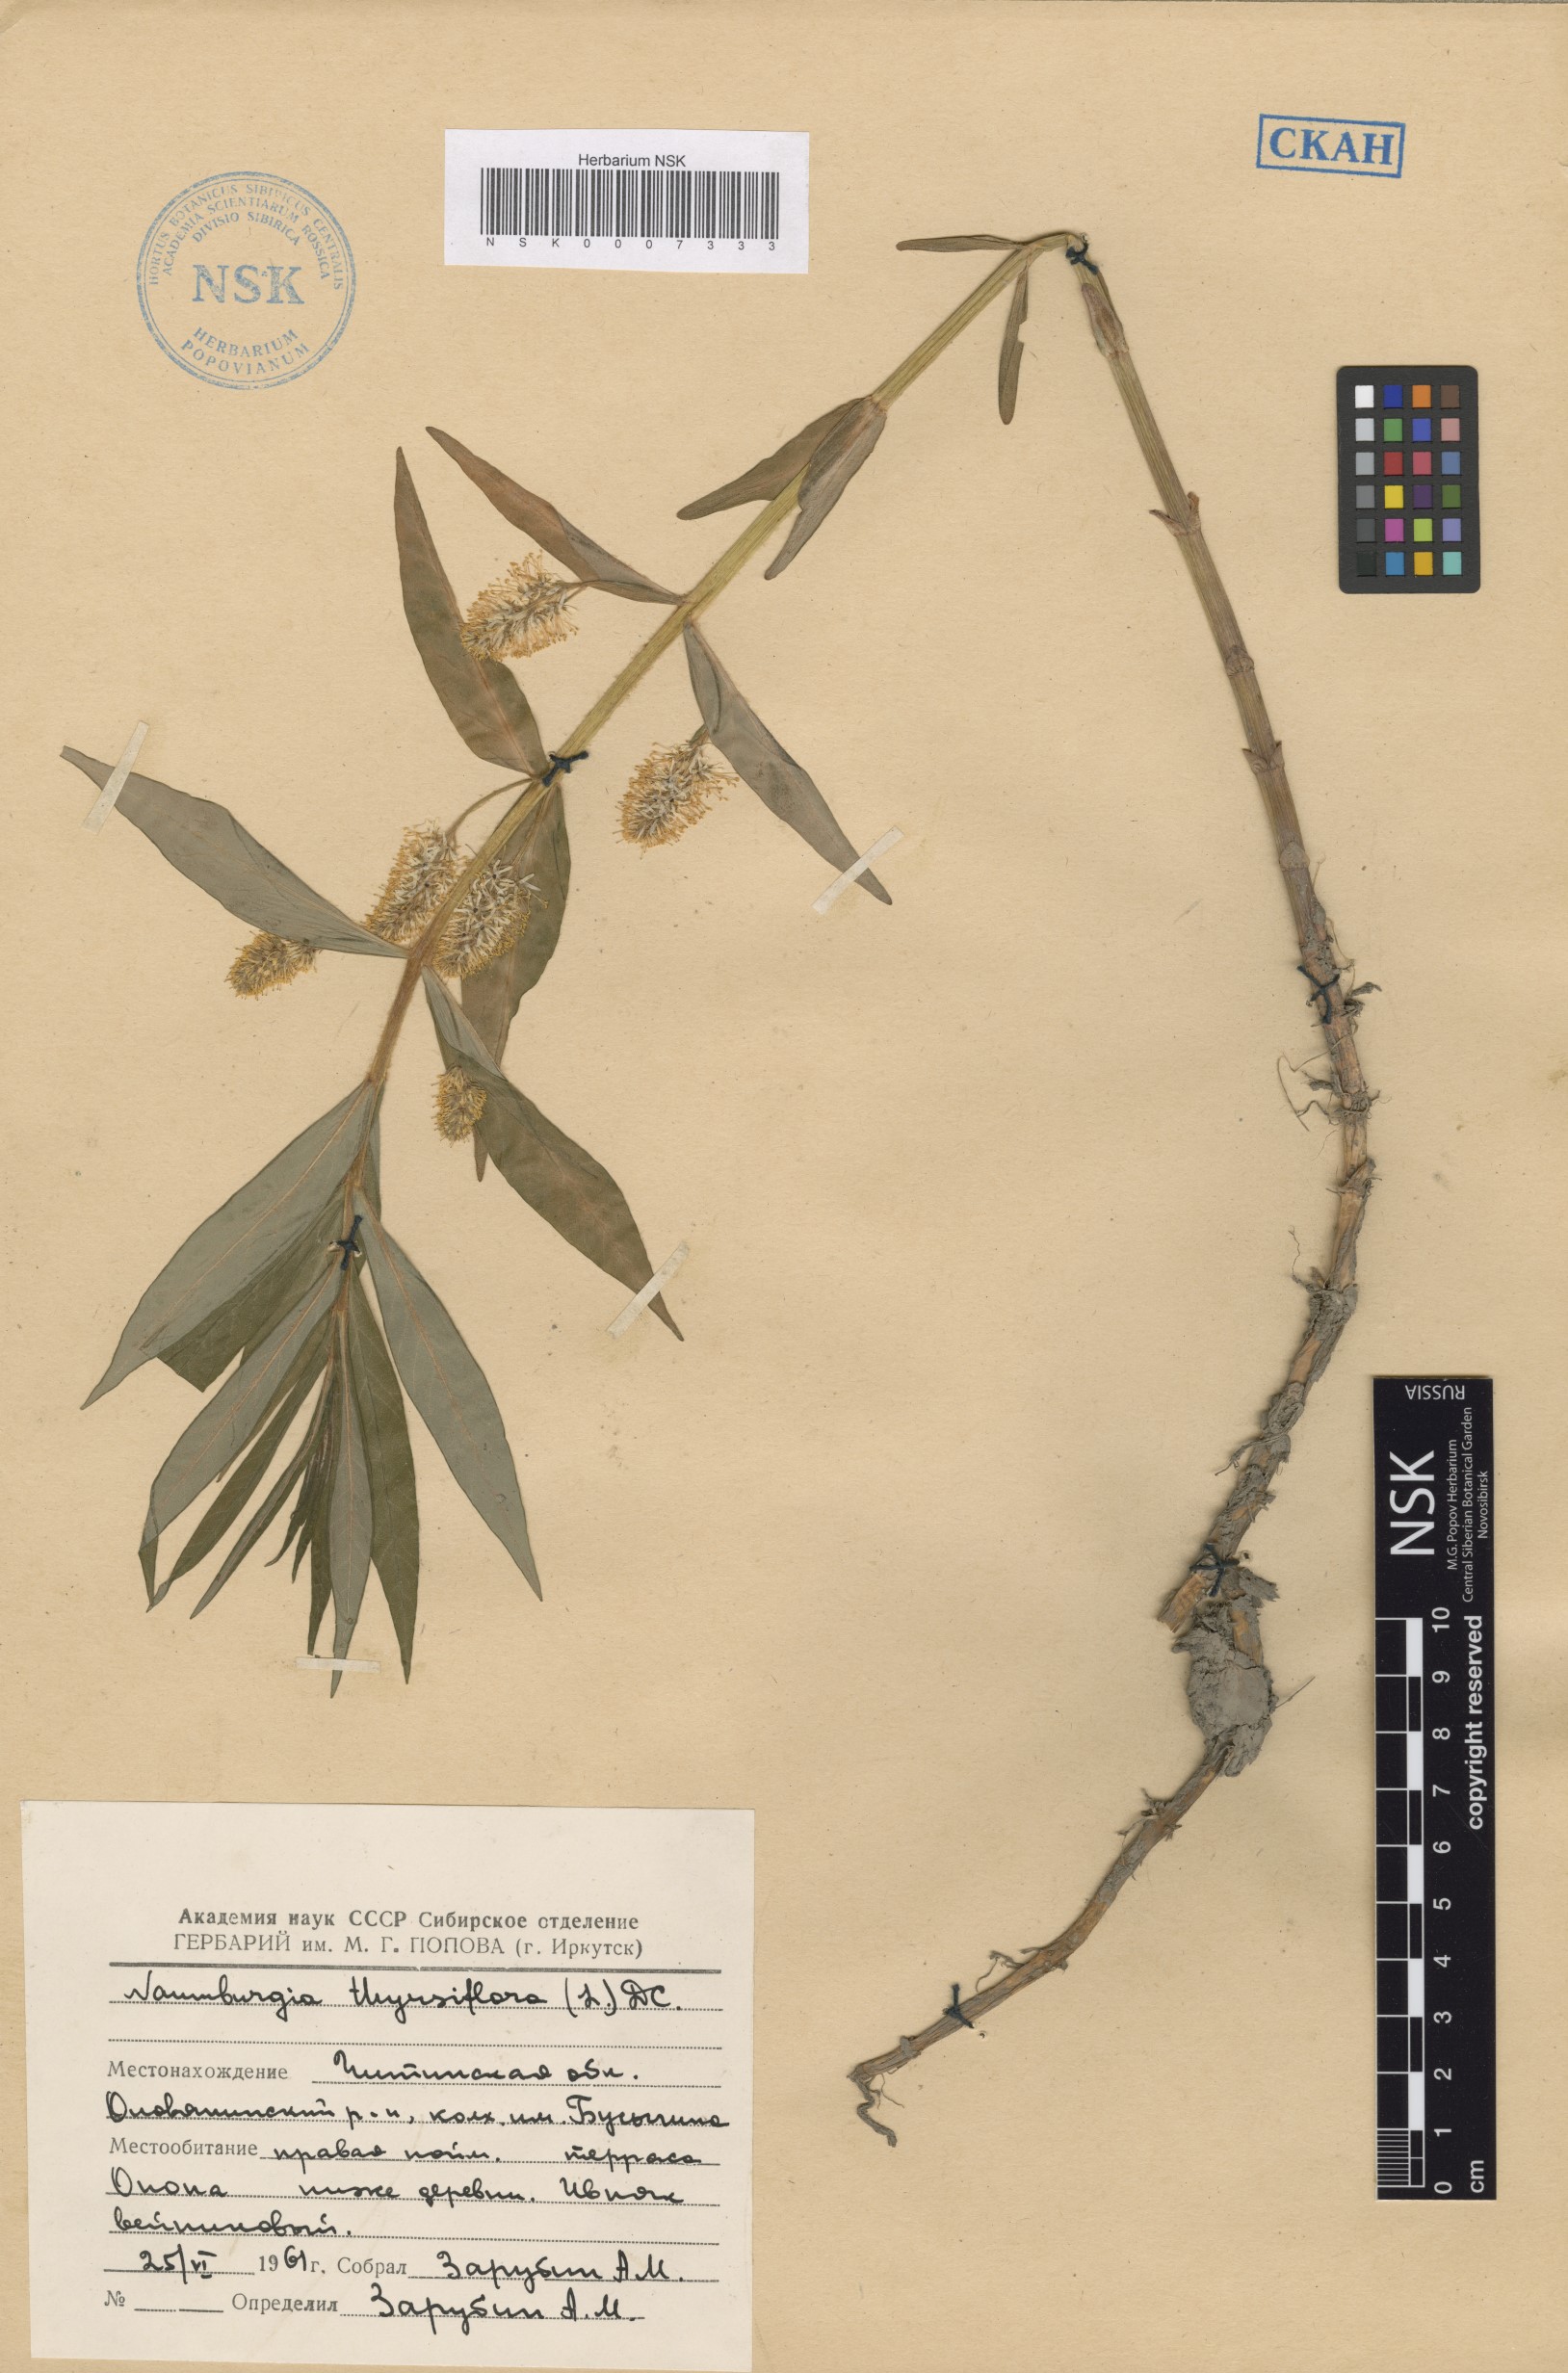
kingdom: Plantae
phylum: Tracheophyta
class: Magnoliopsida
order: Ericales
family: Primulaceae
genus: Lysimachia
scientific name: Lysimachia thyrsiflora
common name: Tufted loosestrife
